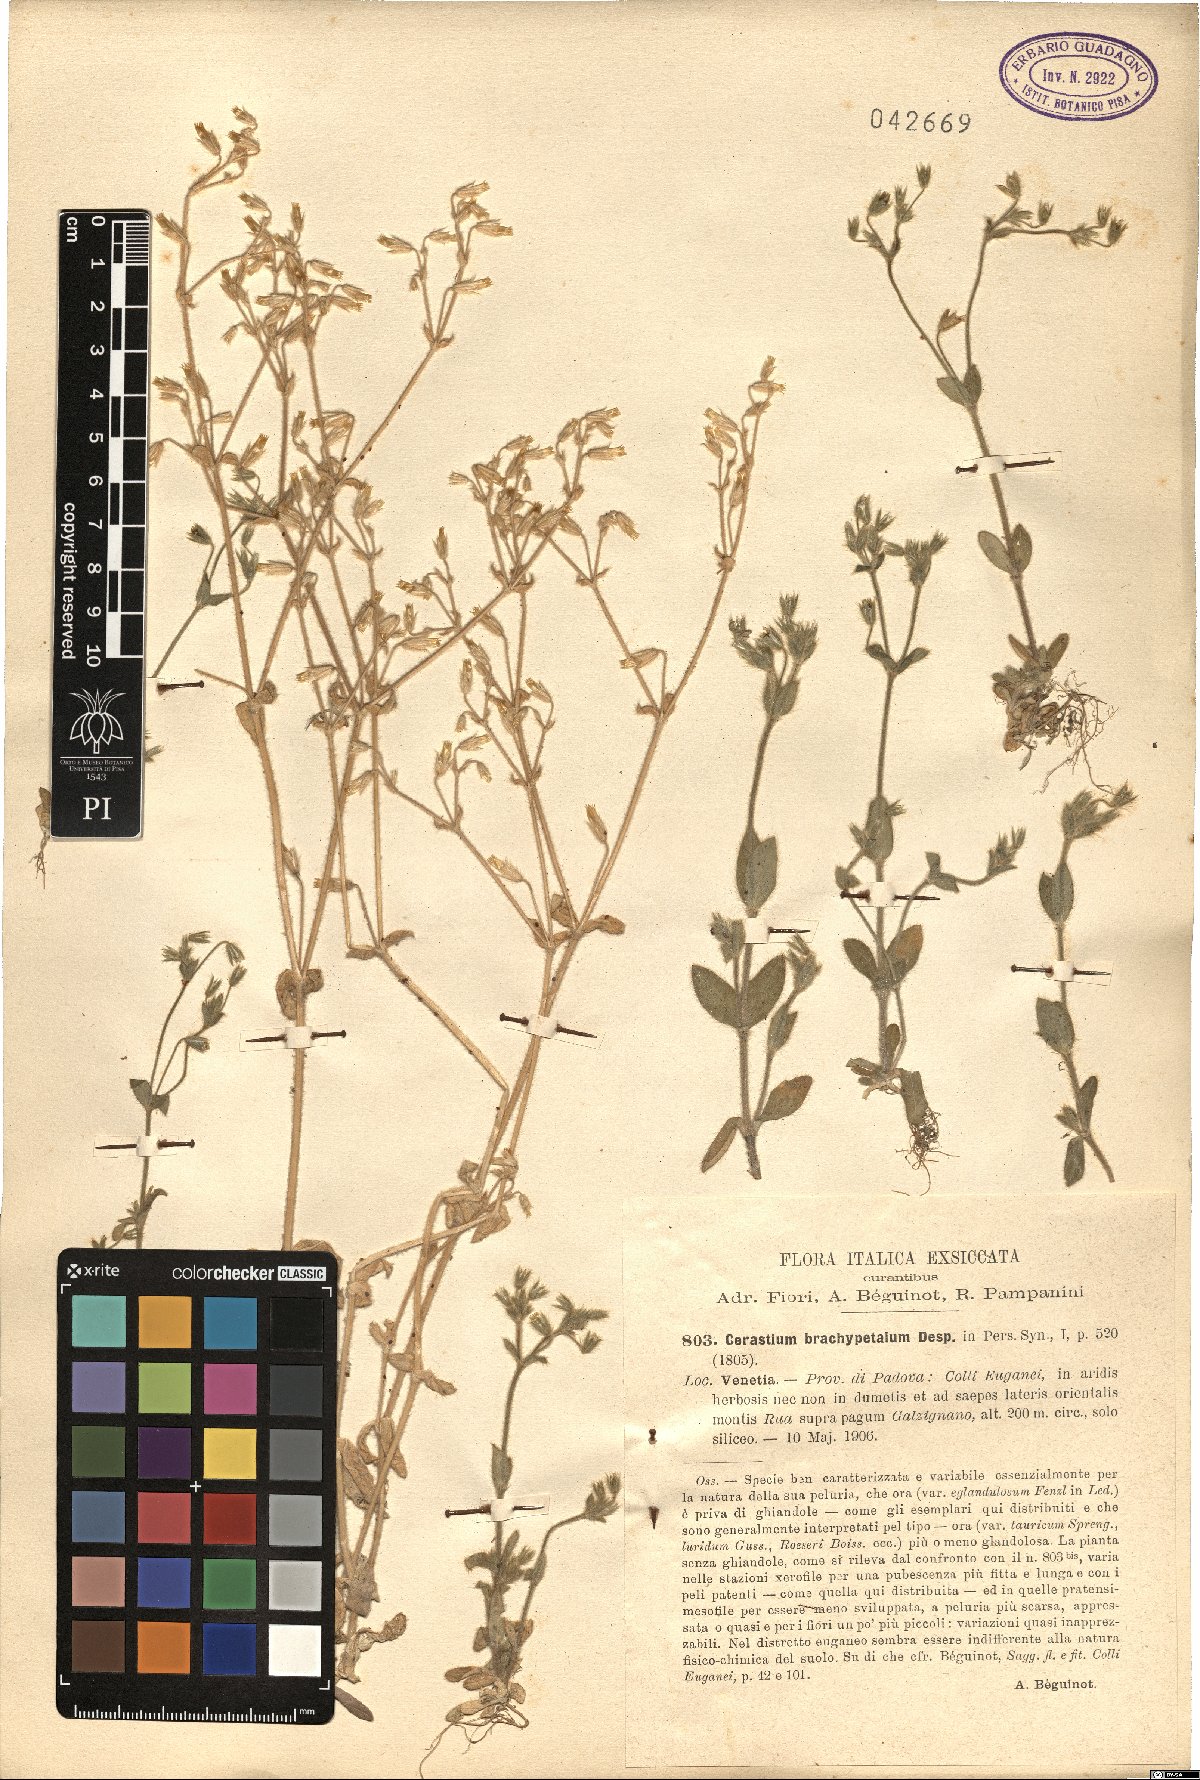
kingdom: Plantae
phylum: Tracheophyta
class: Magnoliopsida
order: Caryophyllales
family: Caryophyllaceae
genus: Cerastium
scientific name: Cerastium brachypetalum
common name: Grey mouse-ear
